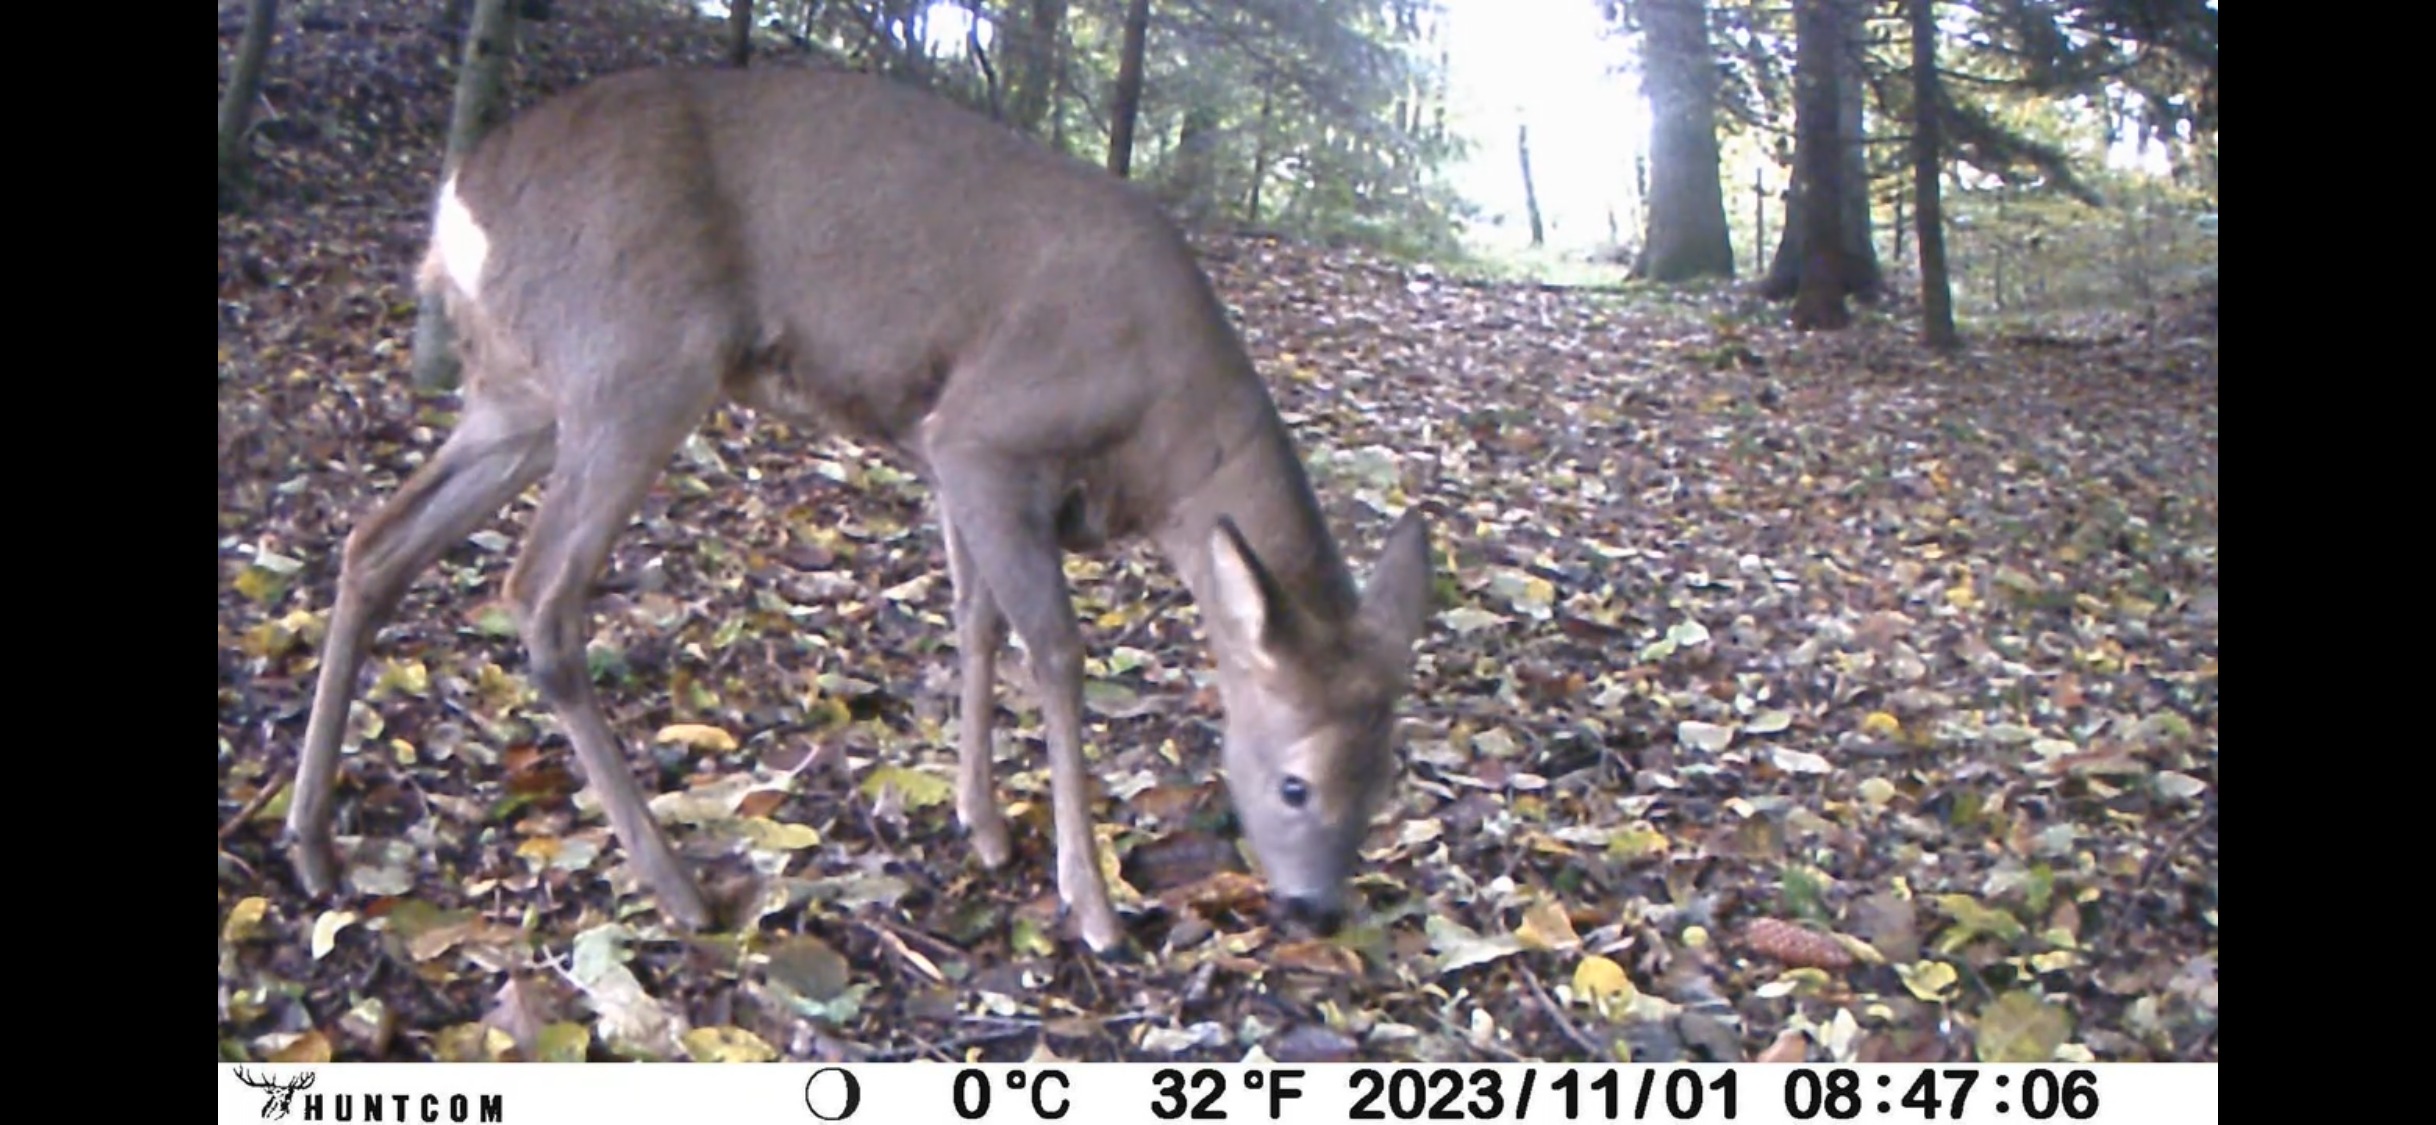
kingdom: Animalia
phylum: Chordata
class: Mammalia
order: Artiodactyla
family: Cervidae
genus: Capreolus
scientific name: Capreolus capreolus
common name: Rådyr
